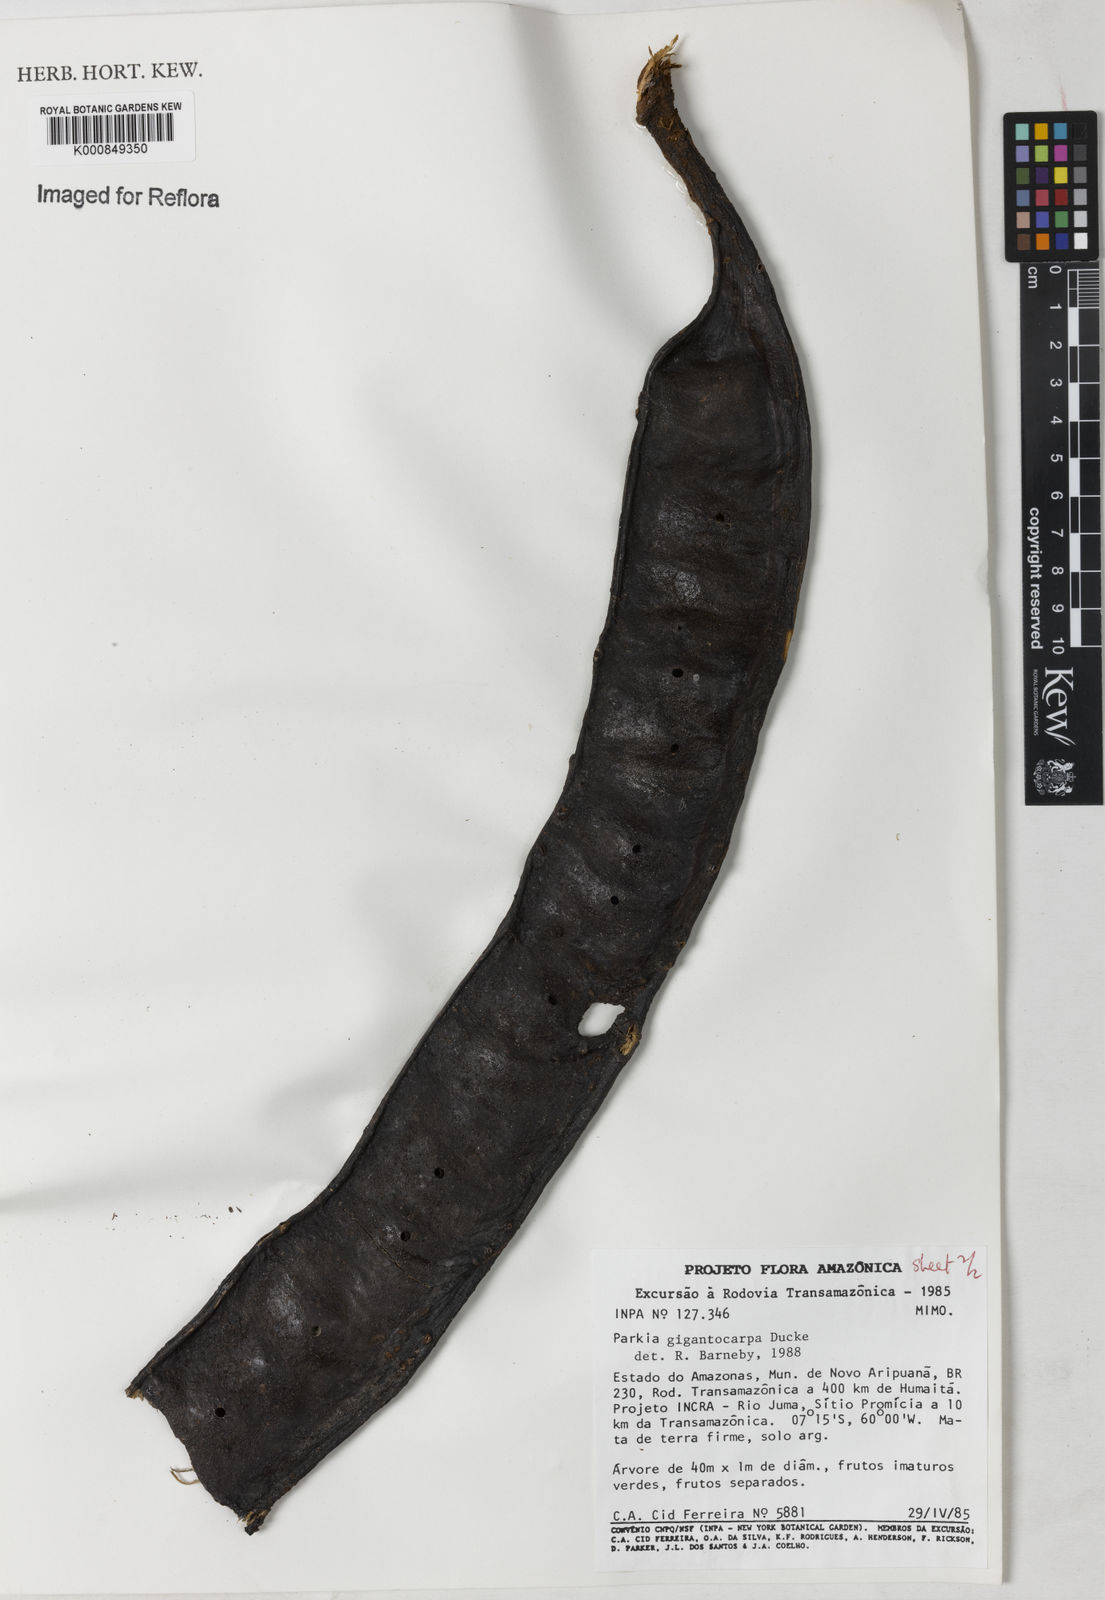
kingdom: Plantae
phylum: Tracheophyta
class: Magnoliopsida
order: Fabales
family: Fabaceae
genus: Parkia
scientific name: Parkia gigantocarpa
